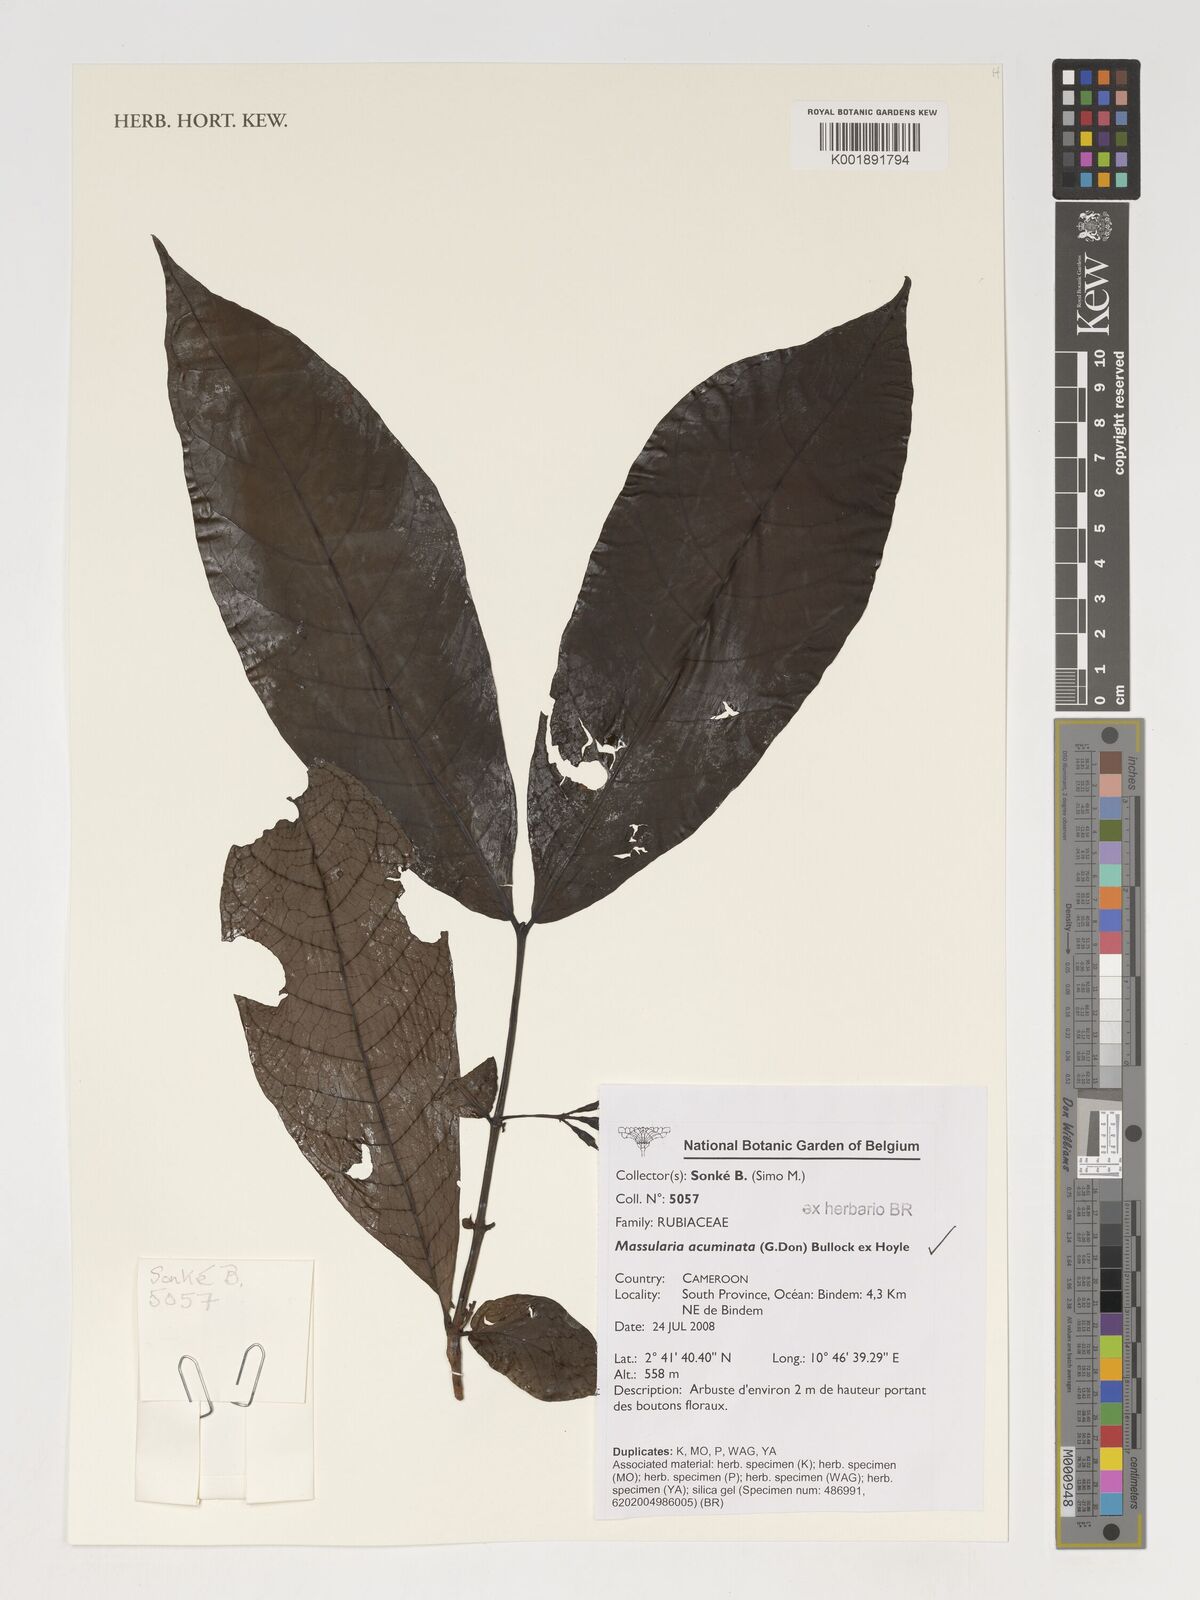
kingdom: Plantae
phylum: Tracheophyta
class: Magnoliopsida
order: Gentianales
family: Rubiaceae
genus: Massularia
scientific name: Massularia acuminata
